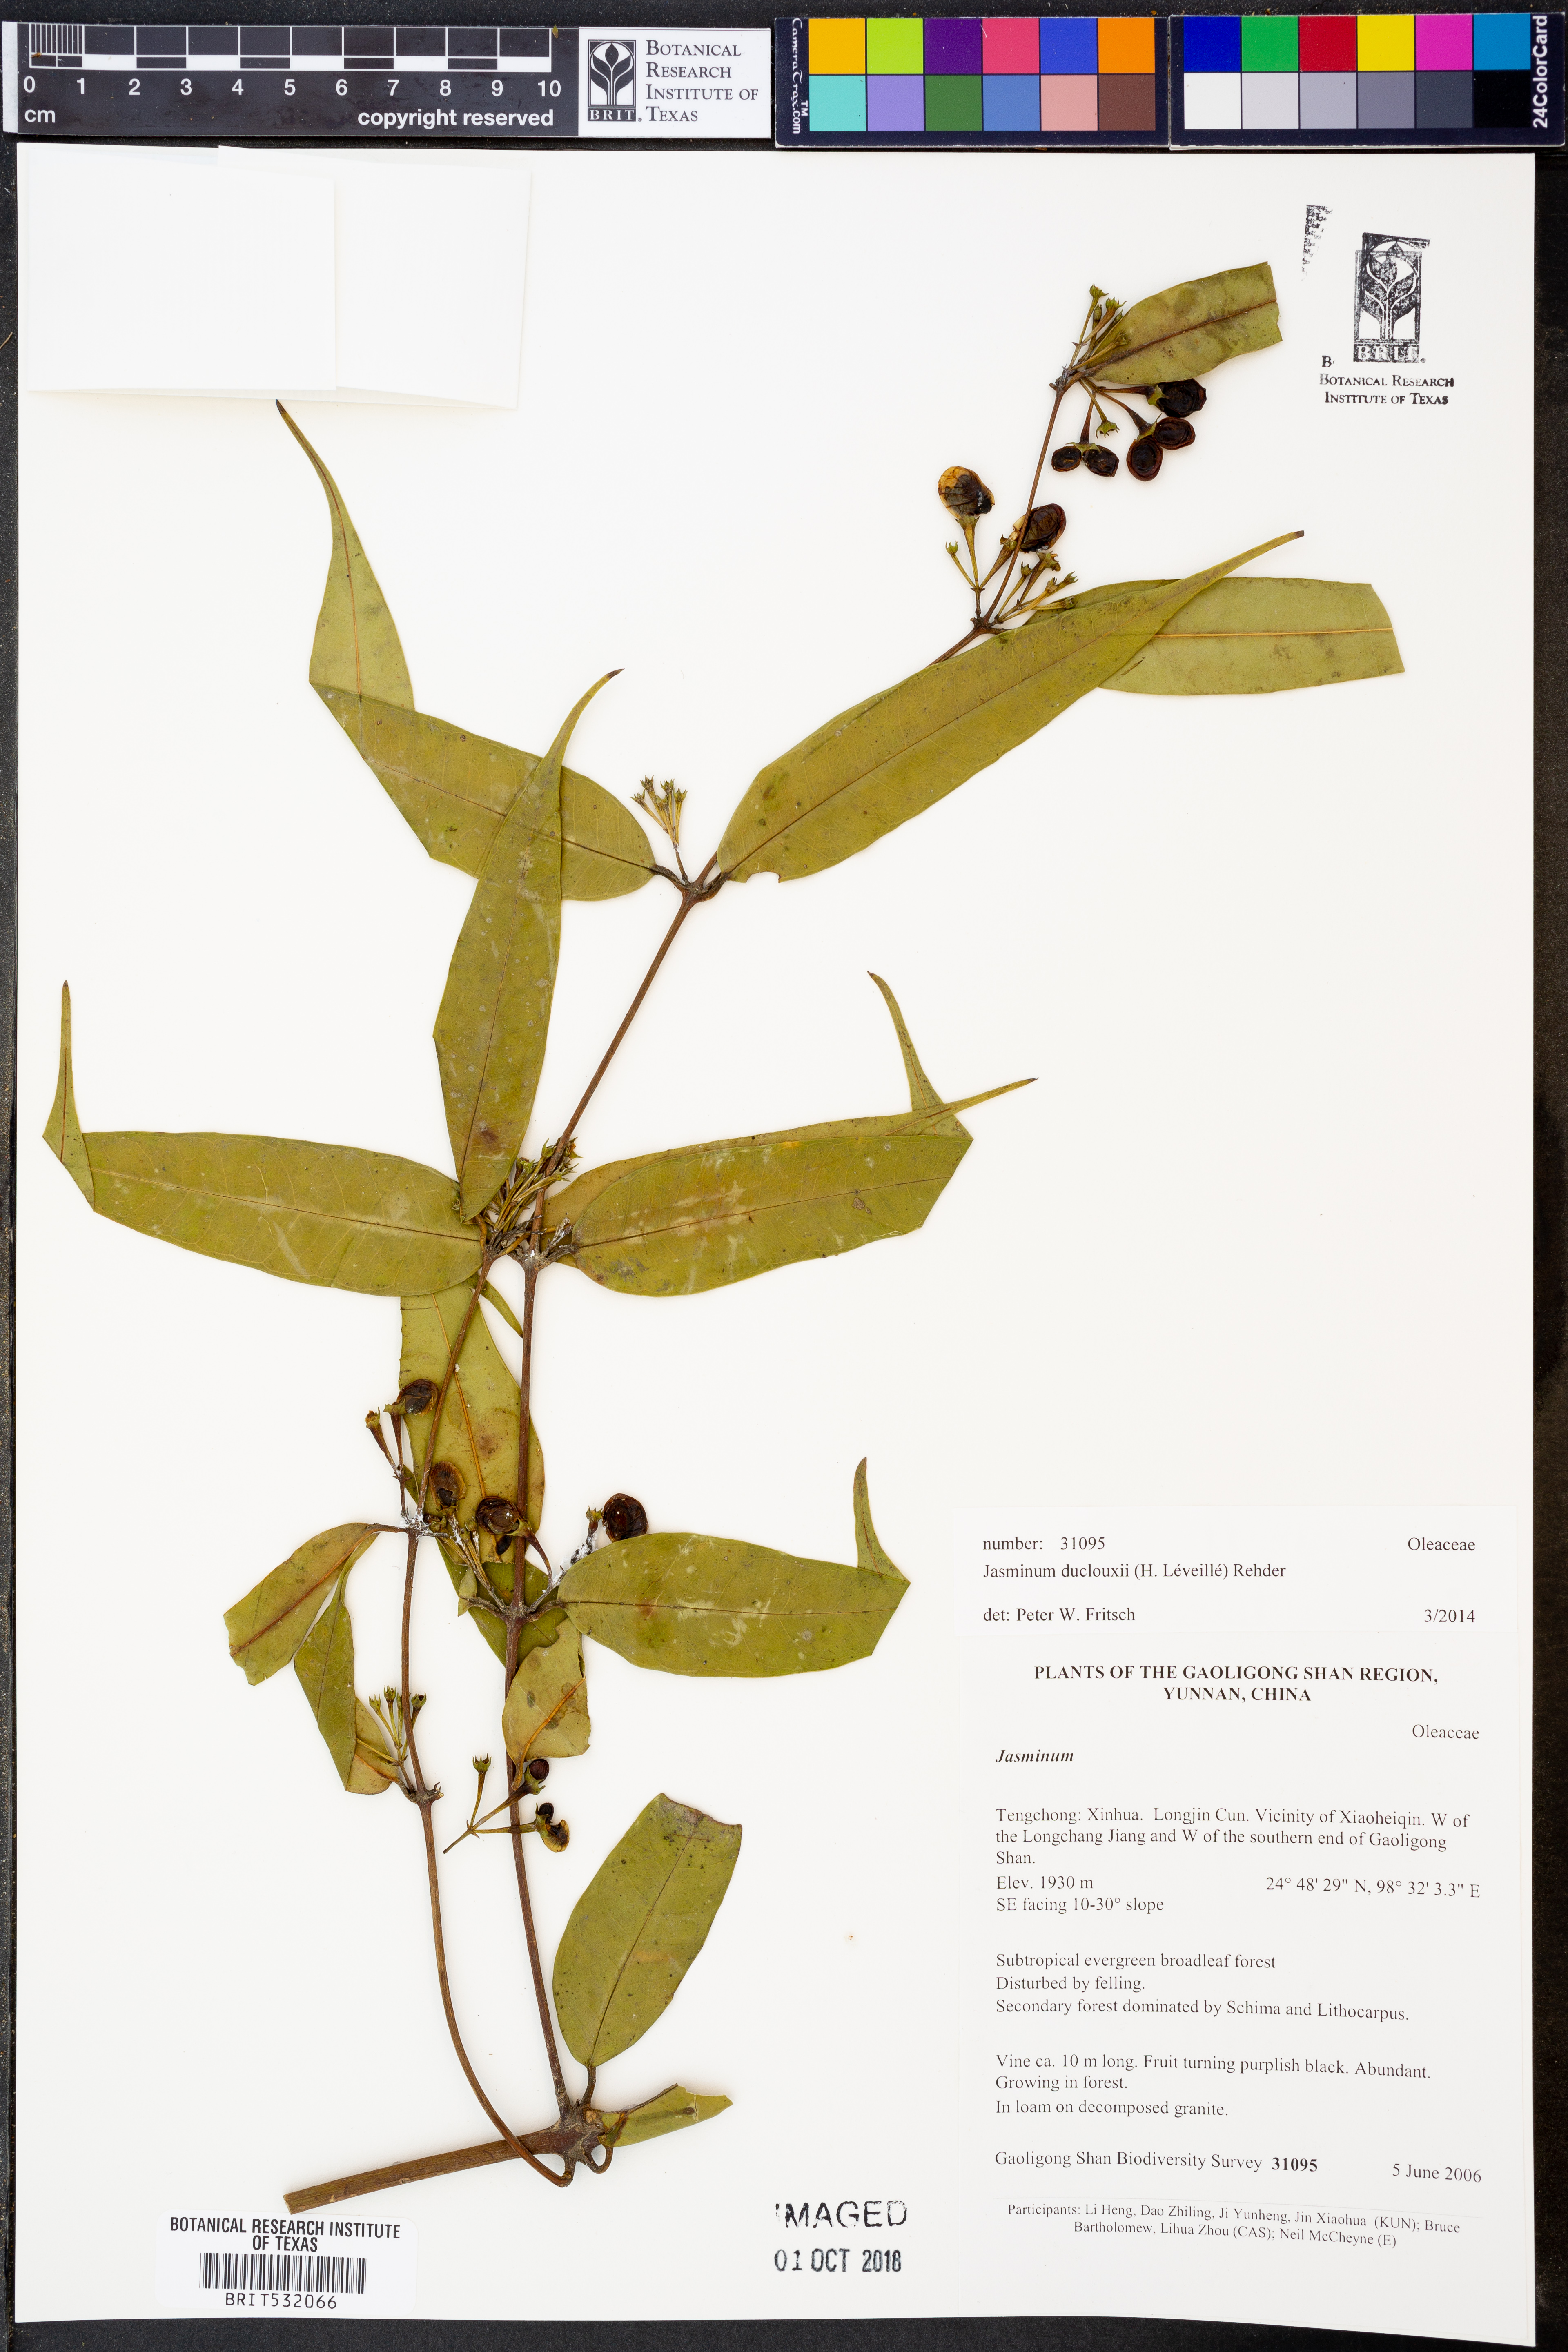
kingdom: Plantae
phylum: Tracheophyta
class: Magnoliopsida
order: Lamiales
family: Oleaceae
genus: Jasminum
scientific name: Jasminum duclouxii
